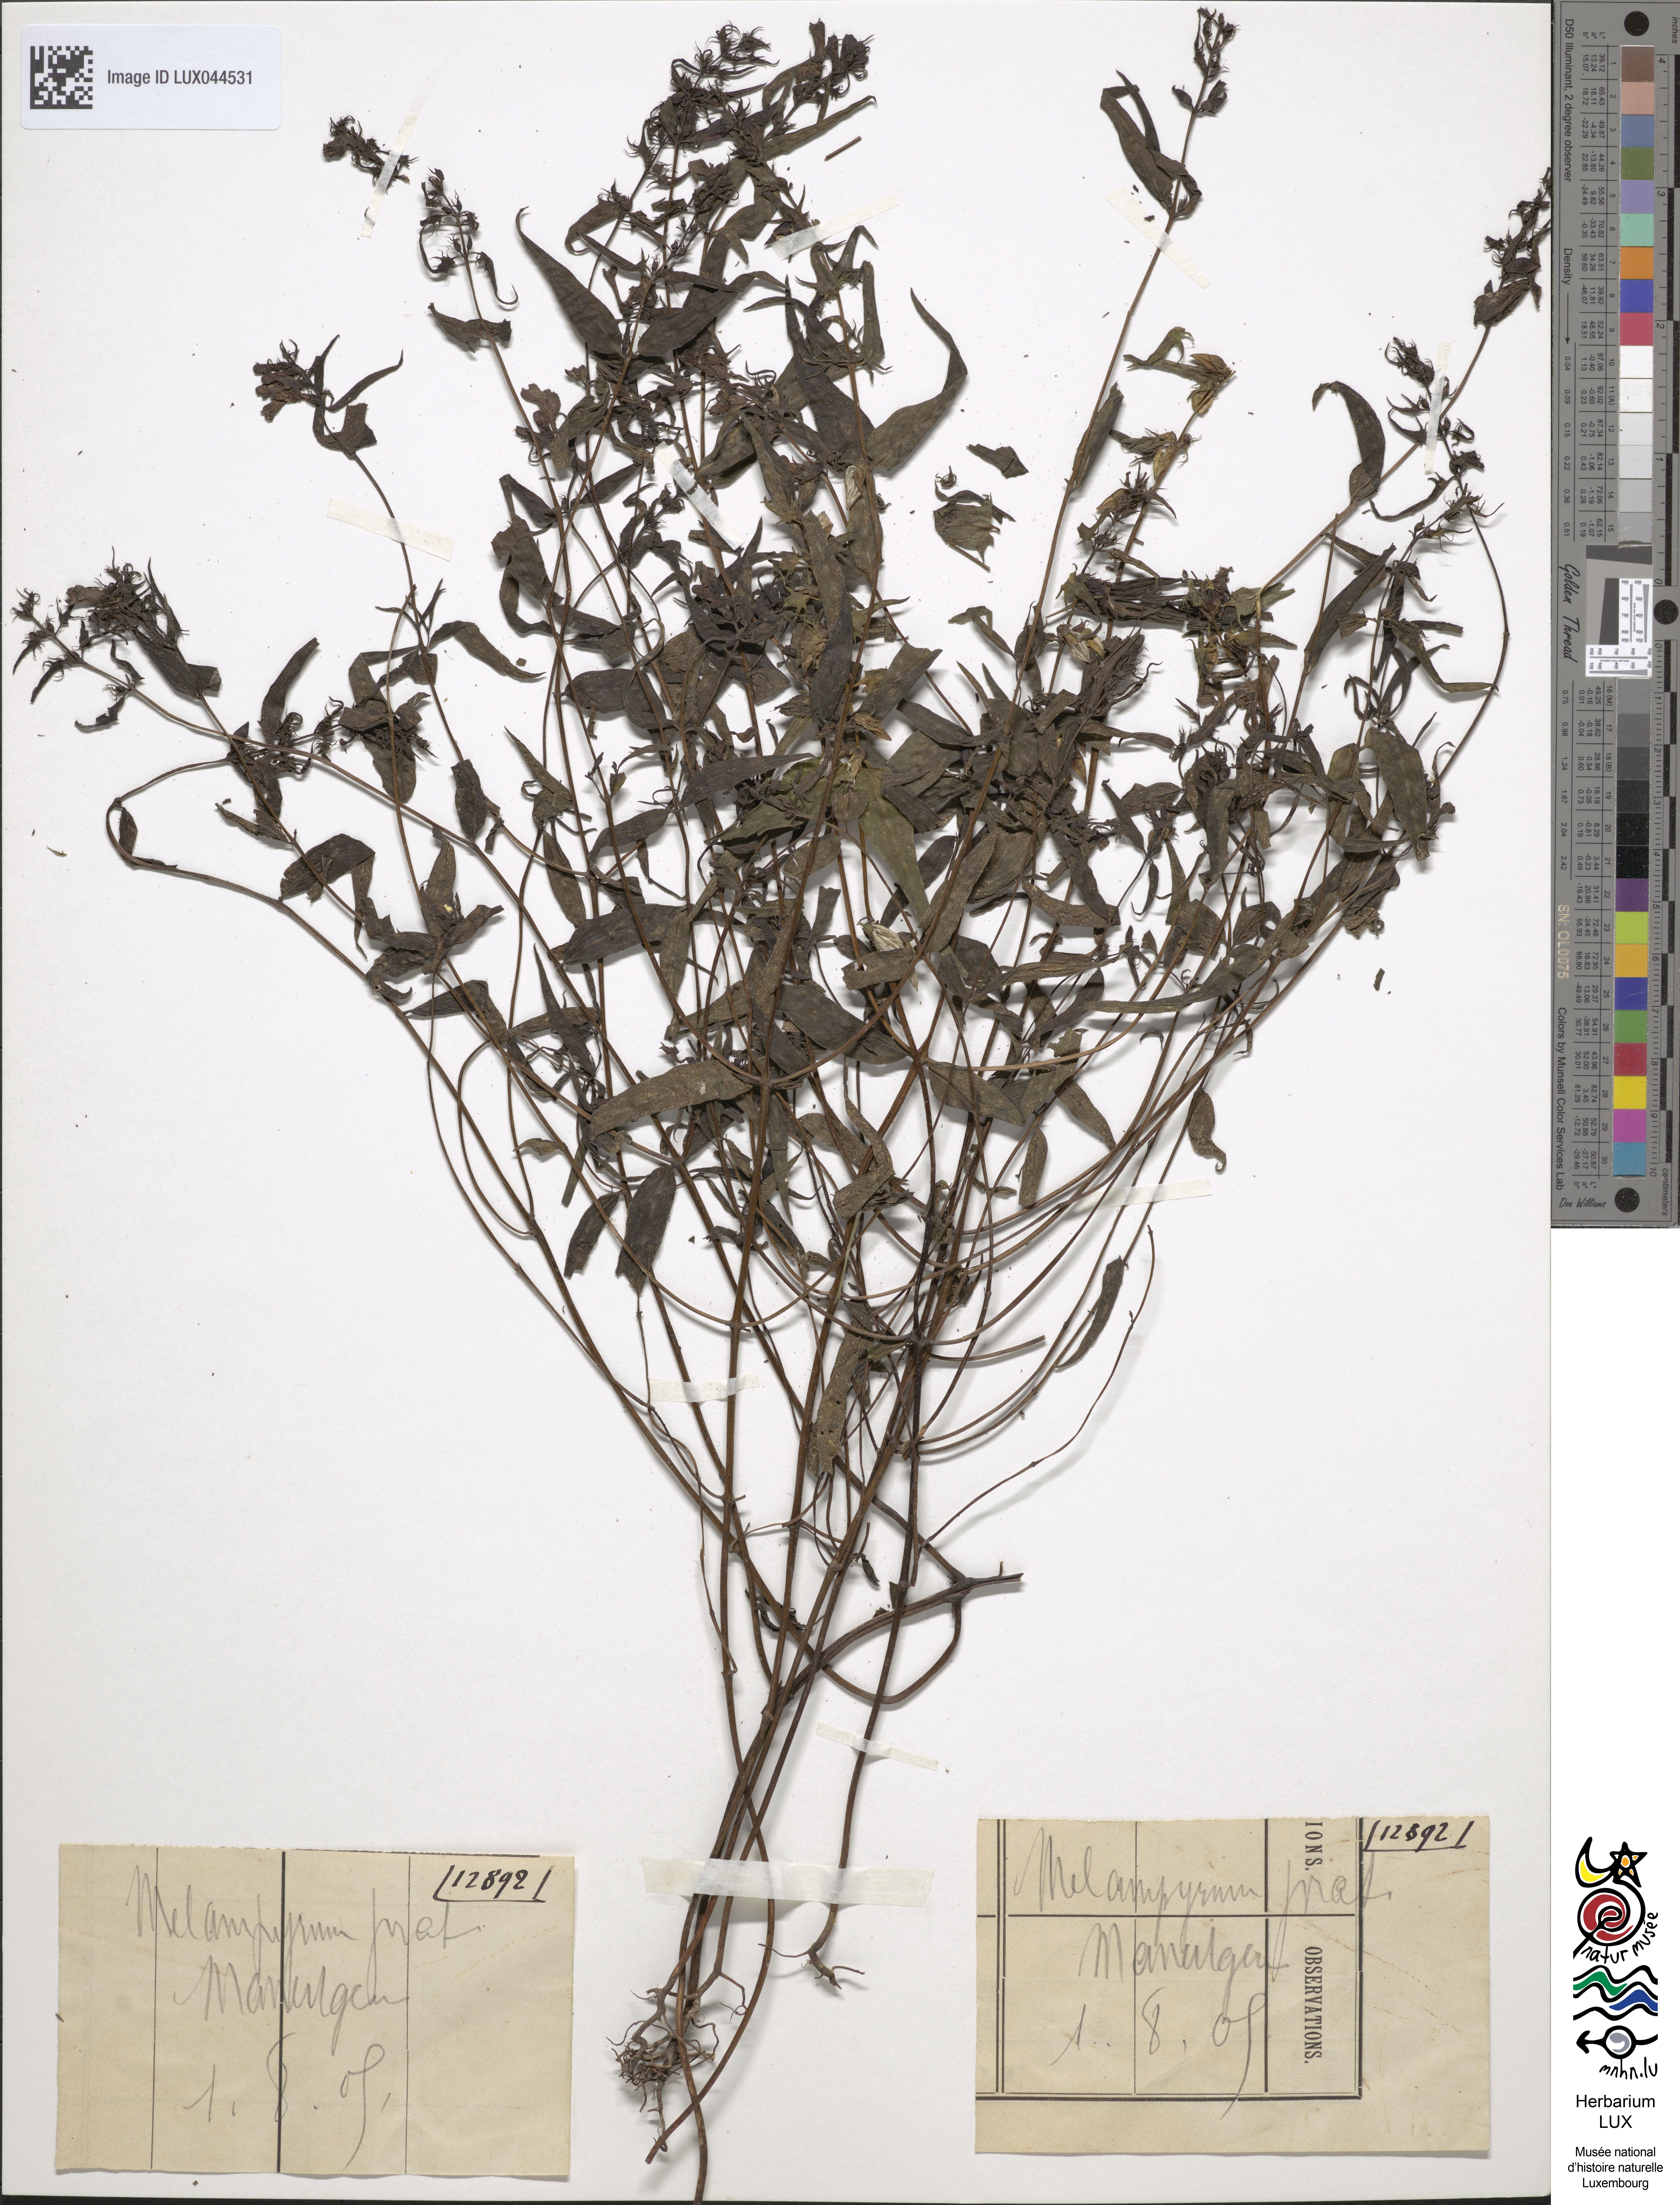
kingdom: Plantae
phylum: Tracheophyta
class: Magnoliopsida
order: Lamiales
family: Orobanchaceae
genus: Melampyrum
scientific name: Melampyrum pratense
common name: Common cow-wheat
